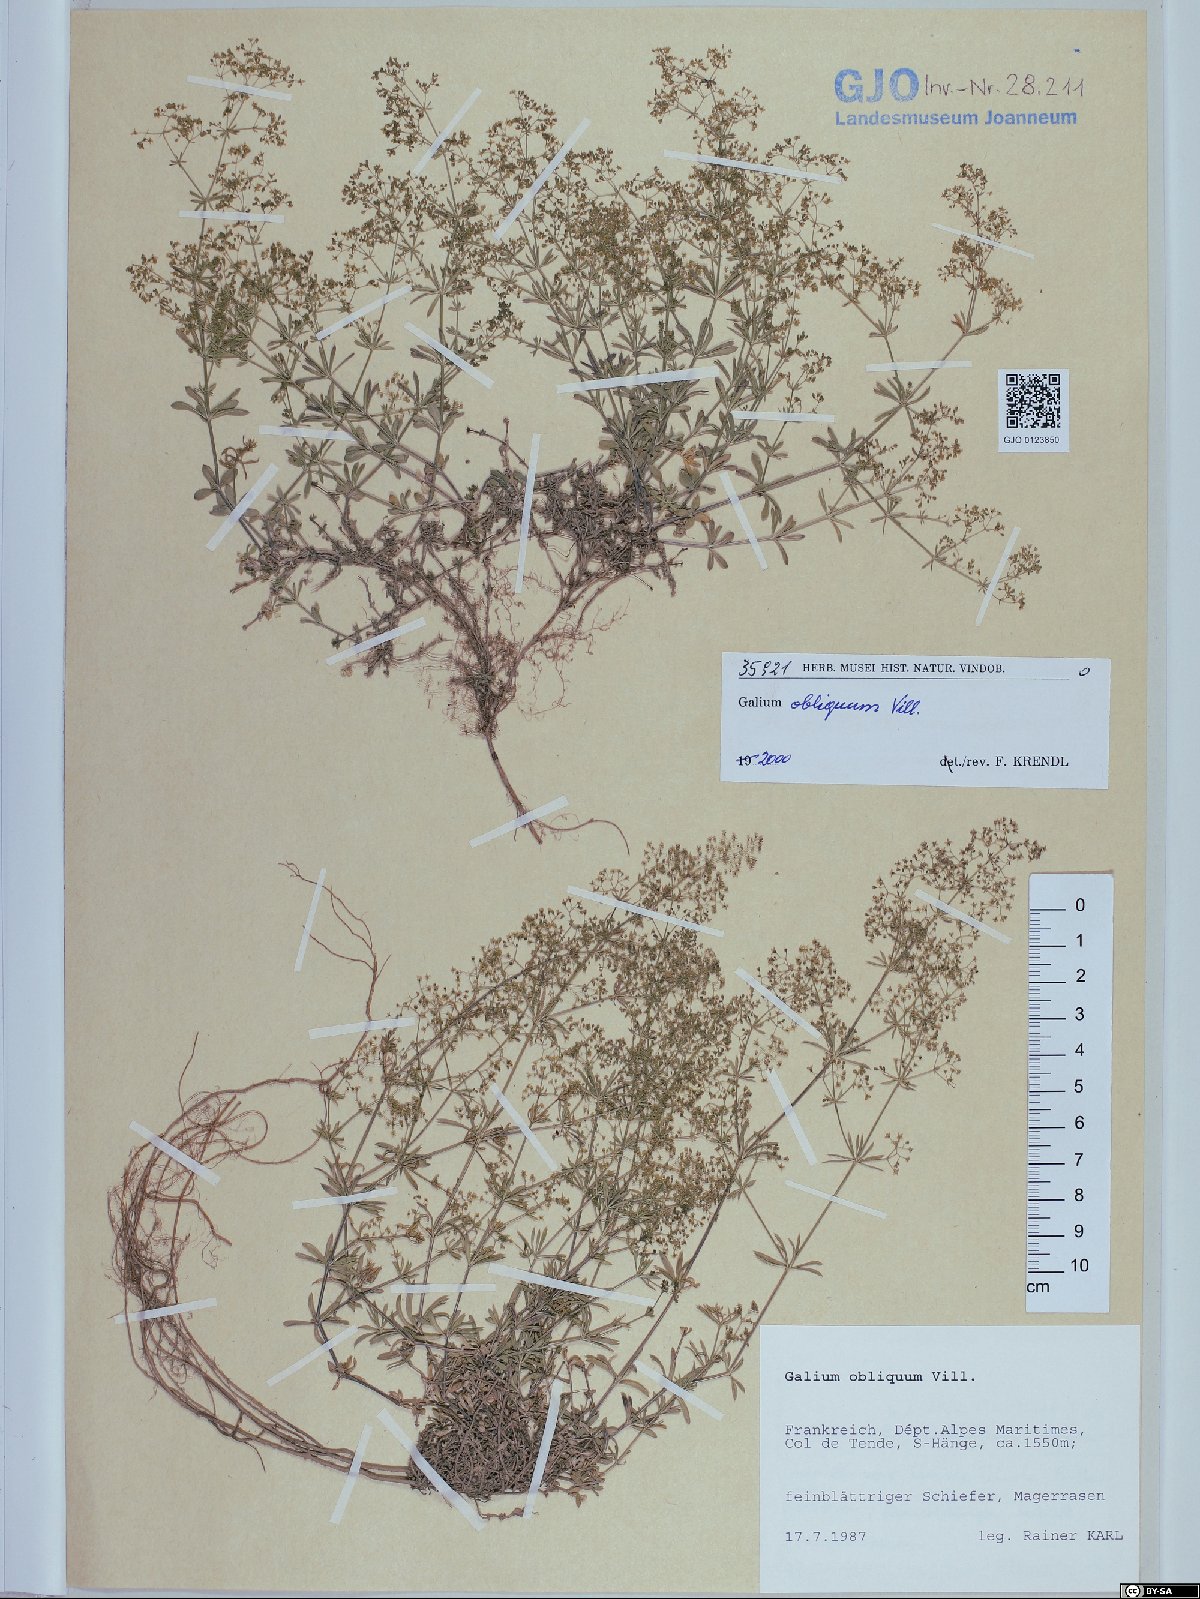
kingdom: Plantae
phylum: Tracheophyta
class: Magnoliopsida
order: Gentianales
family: Rubiaceae
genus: Galium
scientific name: Galium obliquum
